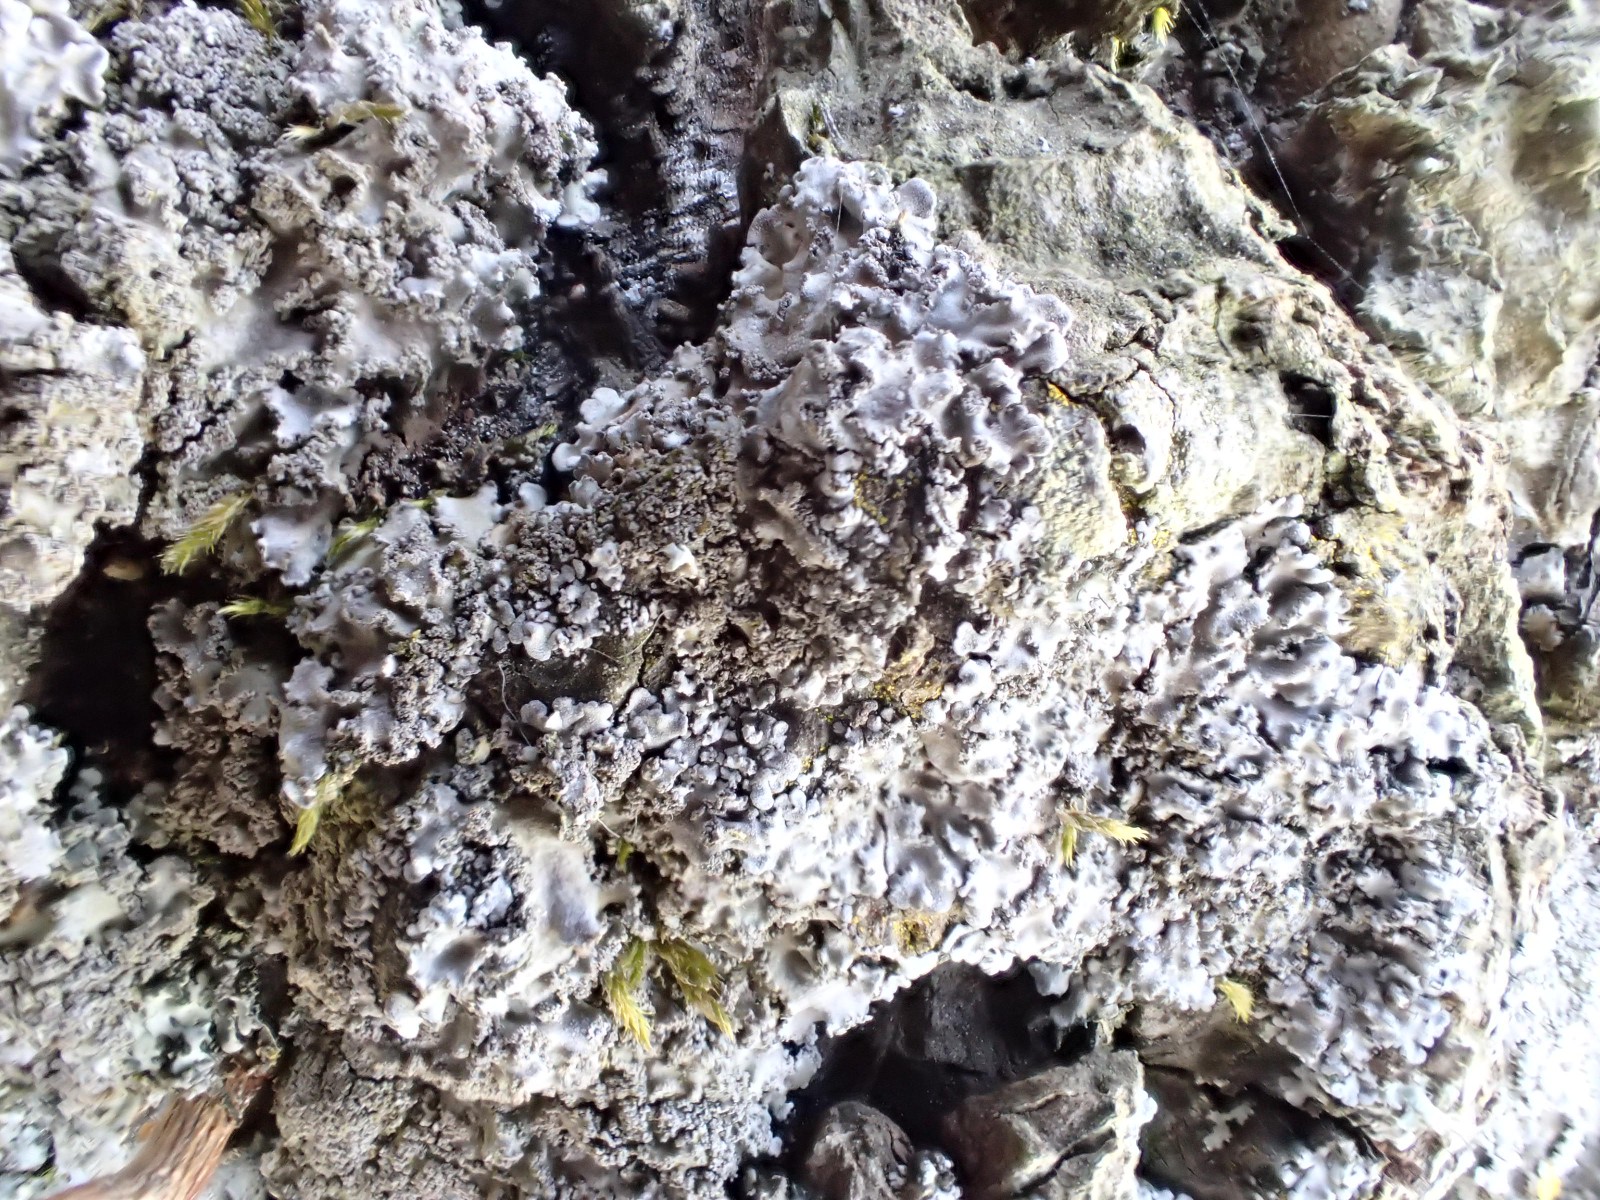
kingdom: Fungi
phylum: Ascomycota
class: Lecanoromycetes
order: Caliciales
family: Physciaceae
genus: Physconia
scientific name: Physconia perisidiosa
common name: liden dugrosetlav
